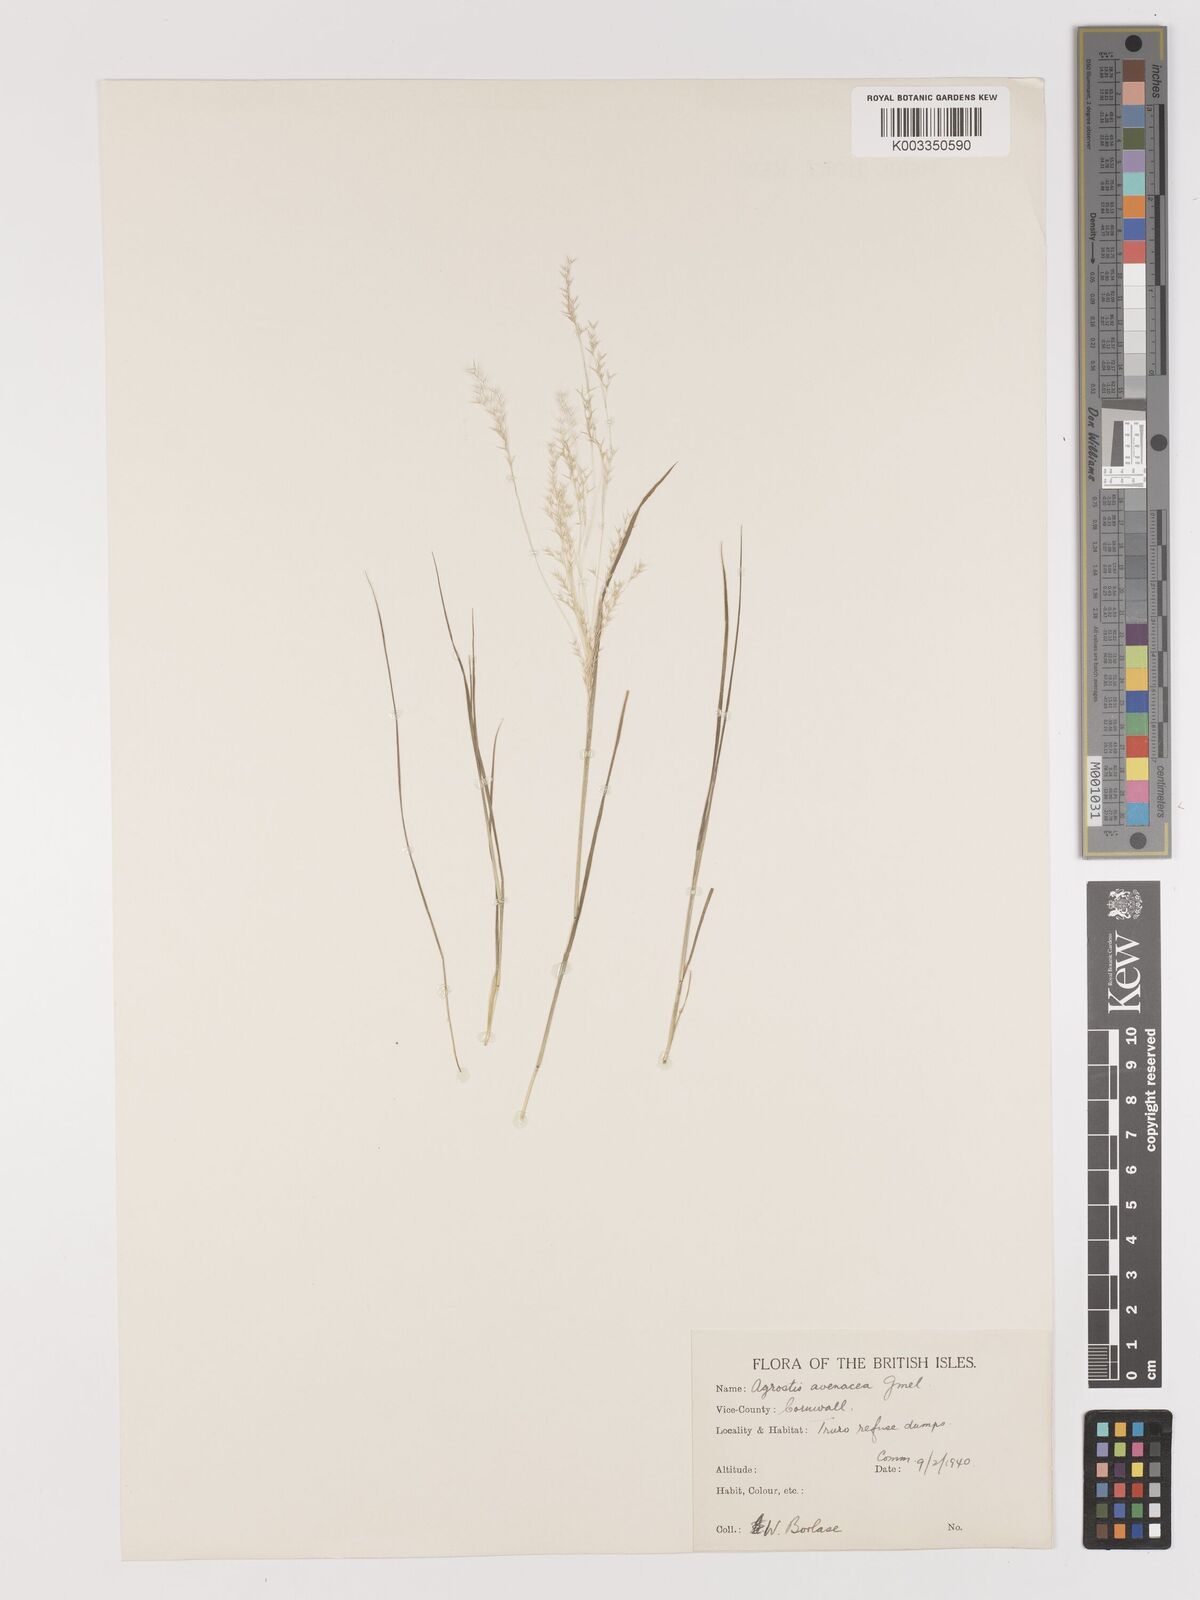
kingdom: Plantae
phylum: Tracheophyta
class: Liliopsida
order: Poales
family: Poaceae
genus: Lachnagrostis
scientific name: Lachnagrostis filiformis
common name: Bentgrass
